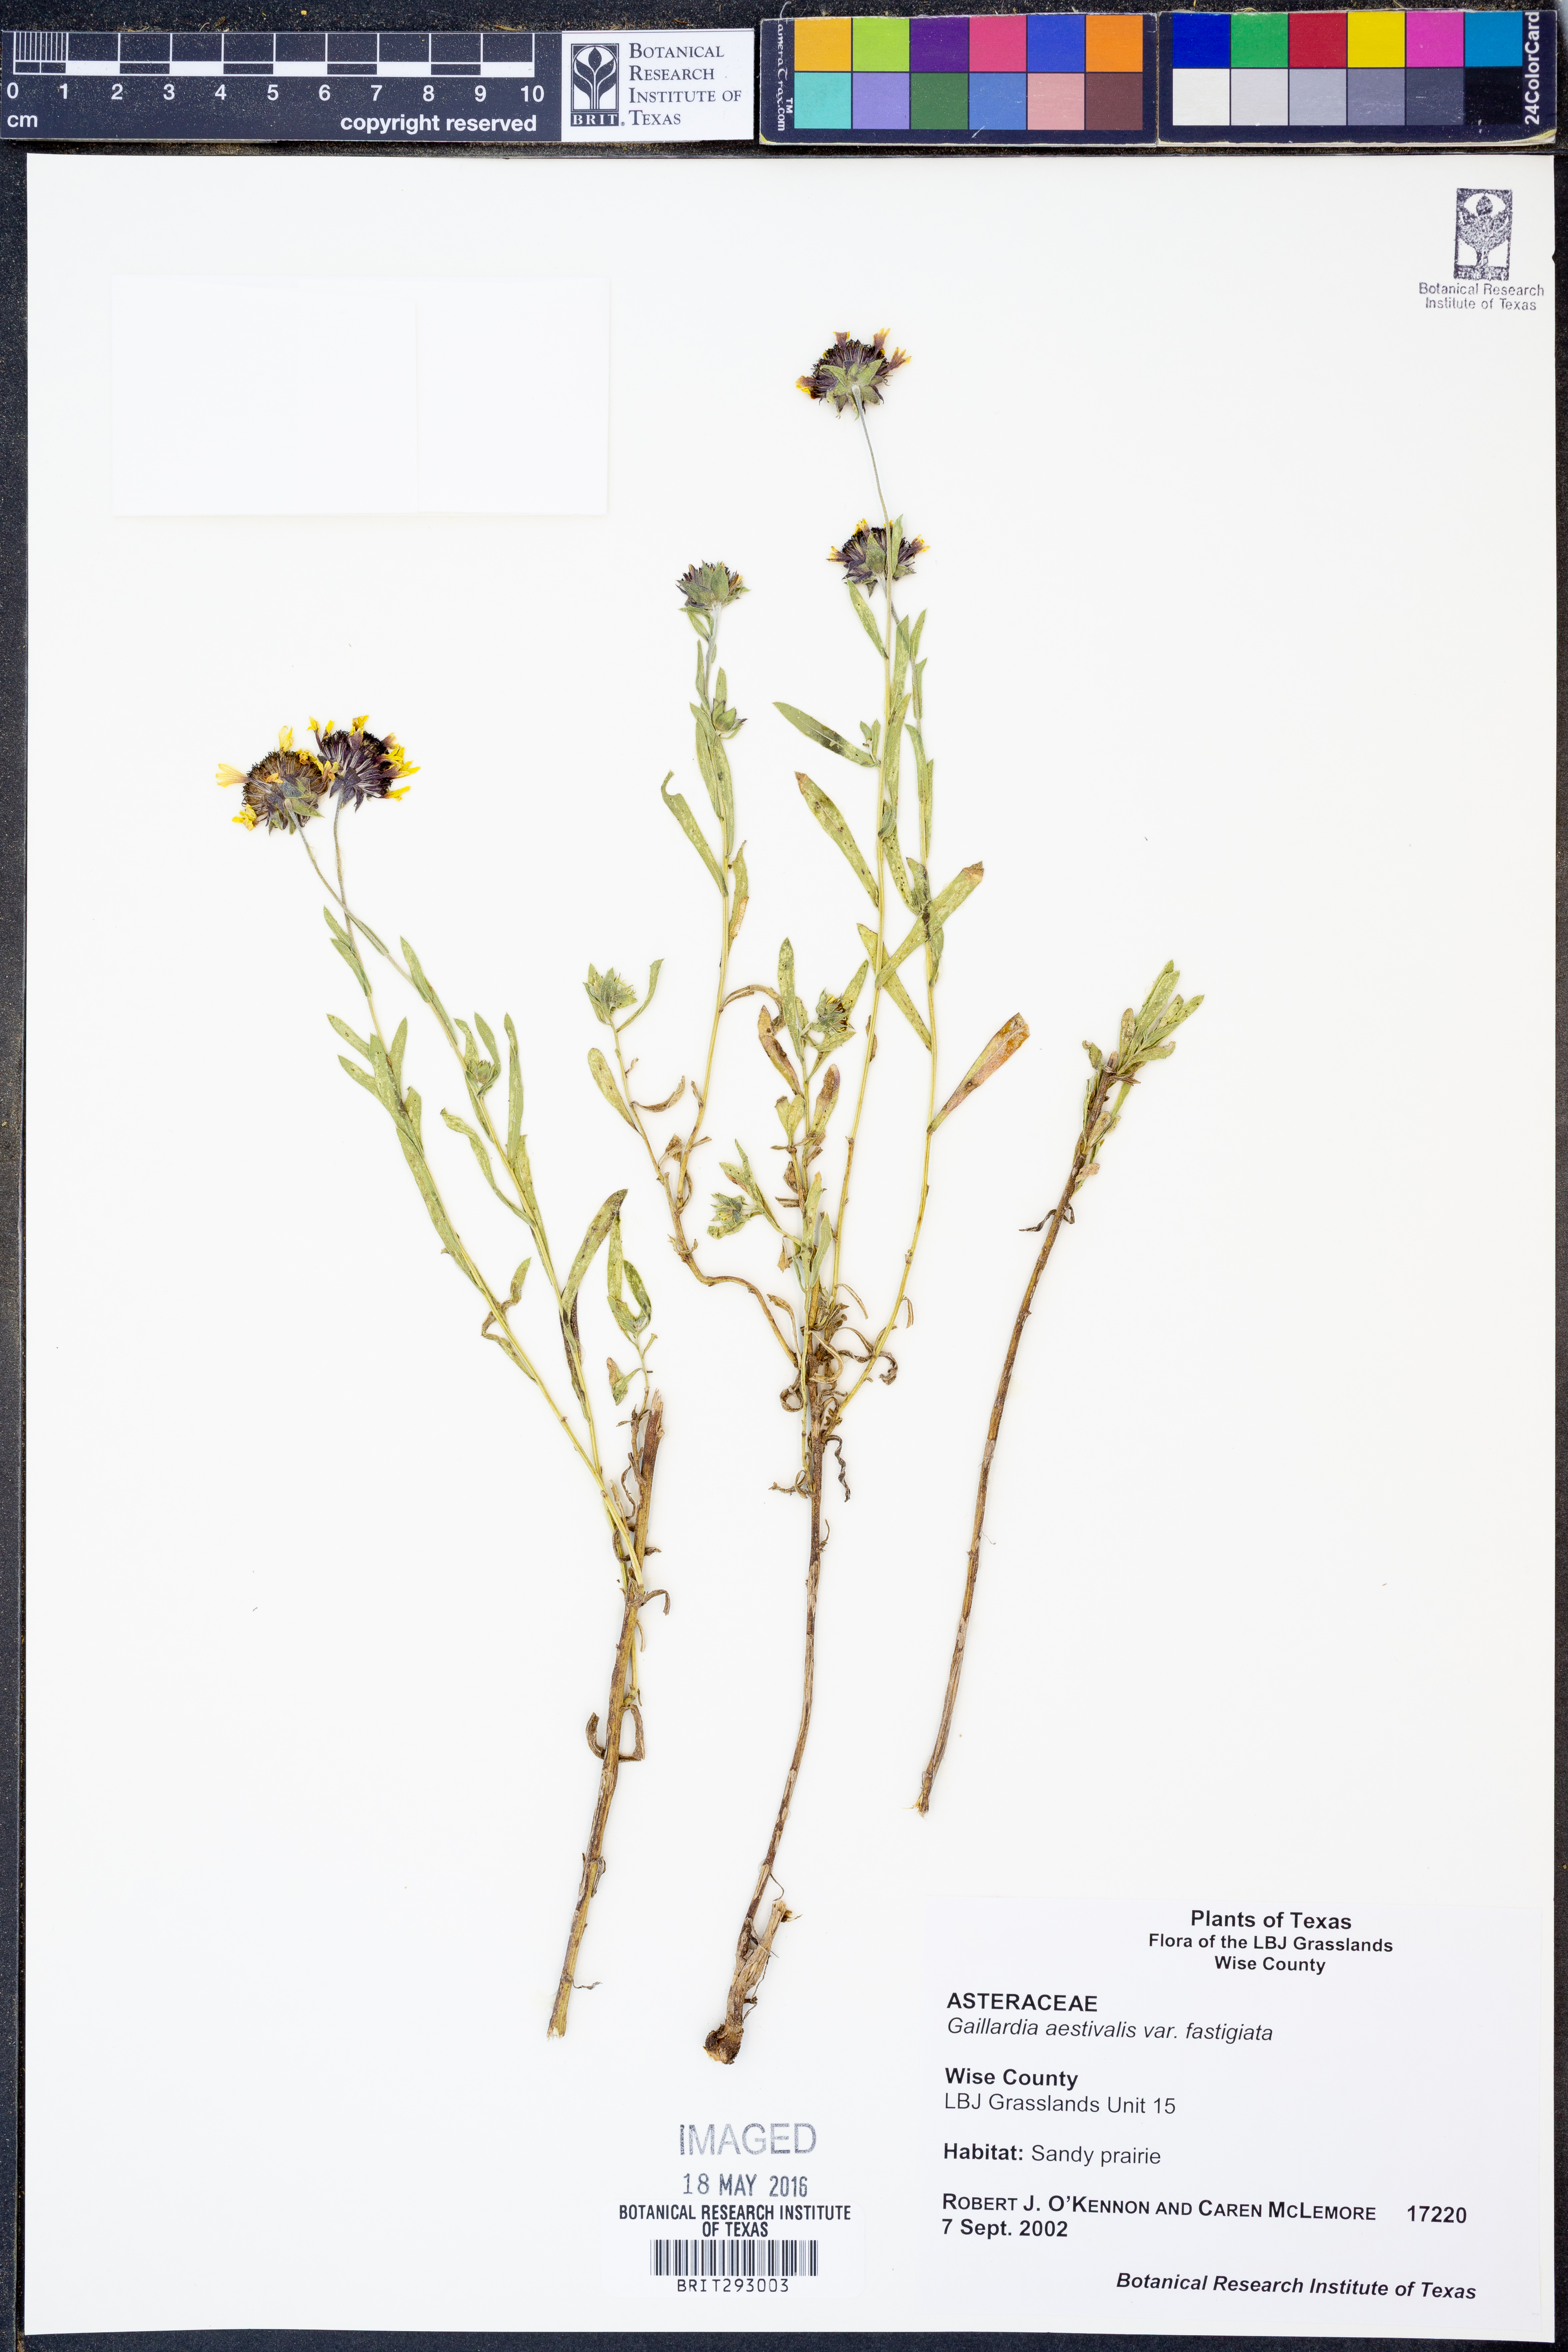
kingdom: Plantae
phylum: Tracheophyta
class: Magnoliopsida
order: Asterales
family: Asteraceae
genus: Gaillardia
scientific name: Gaillardia aestivalis
